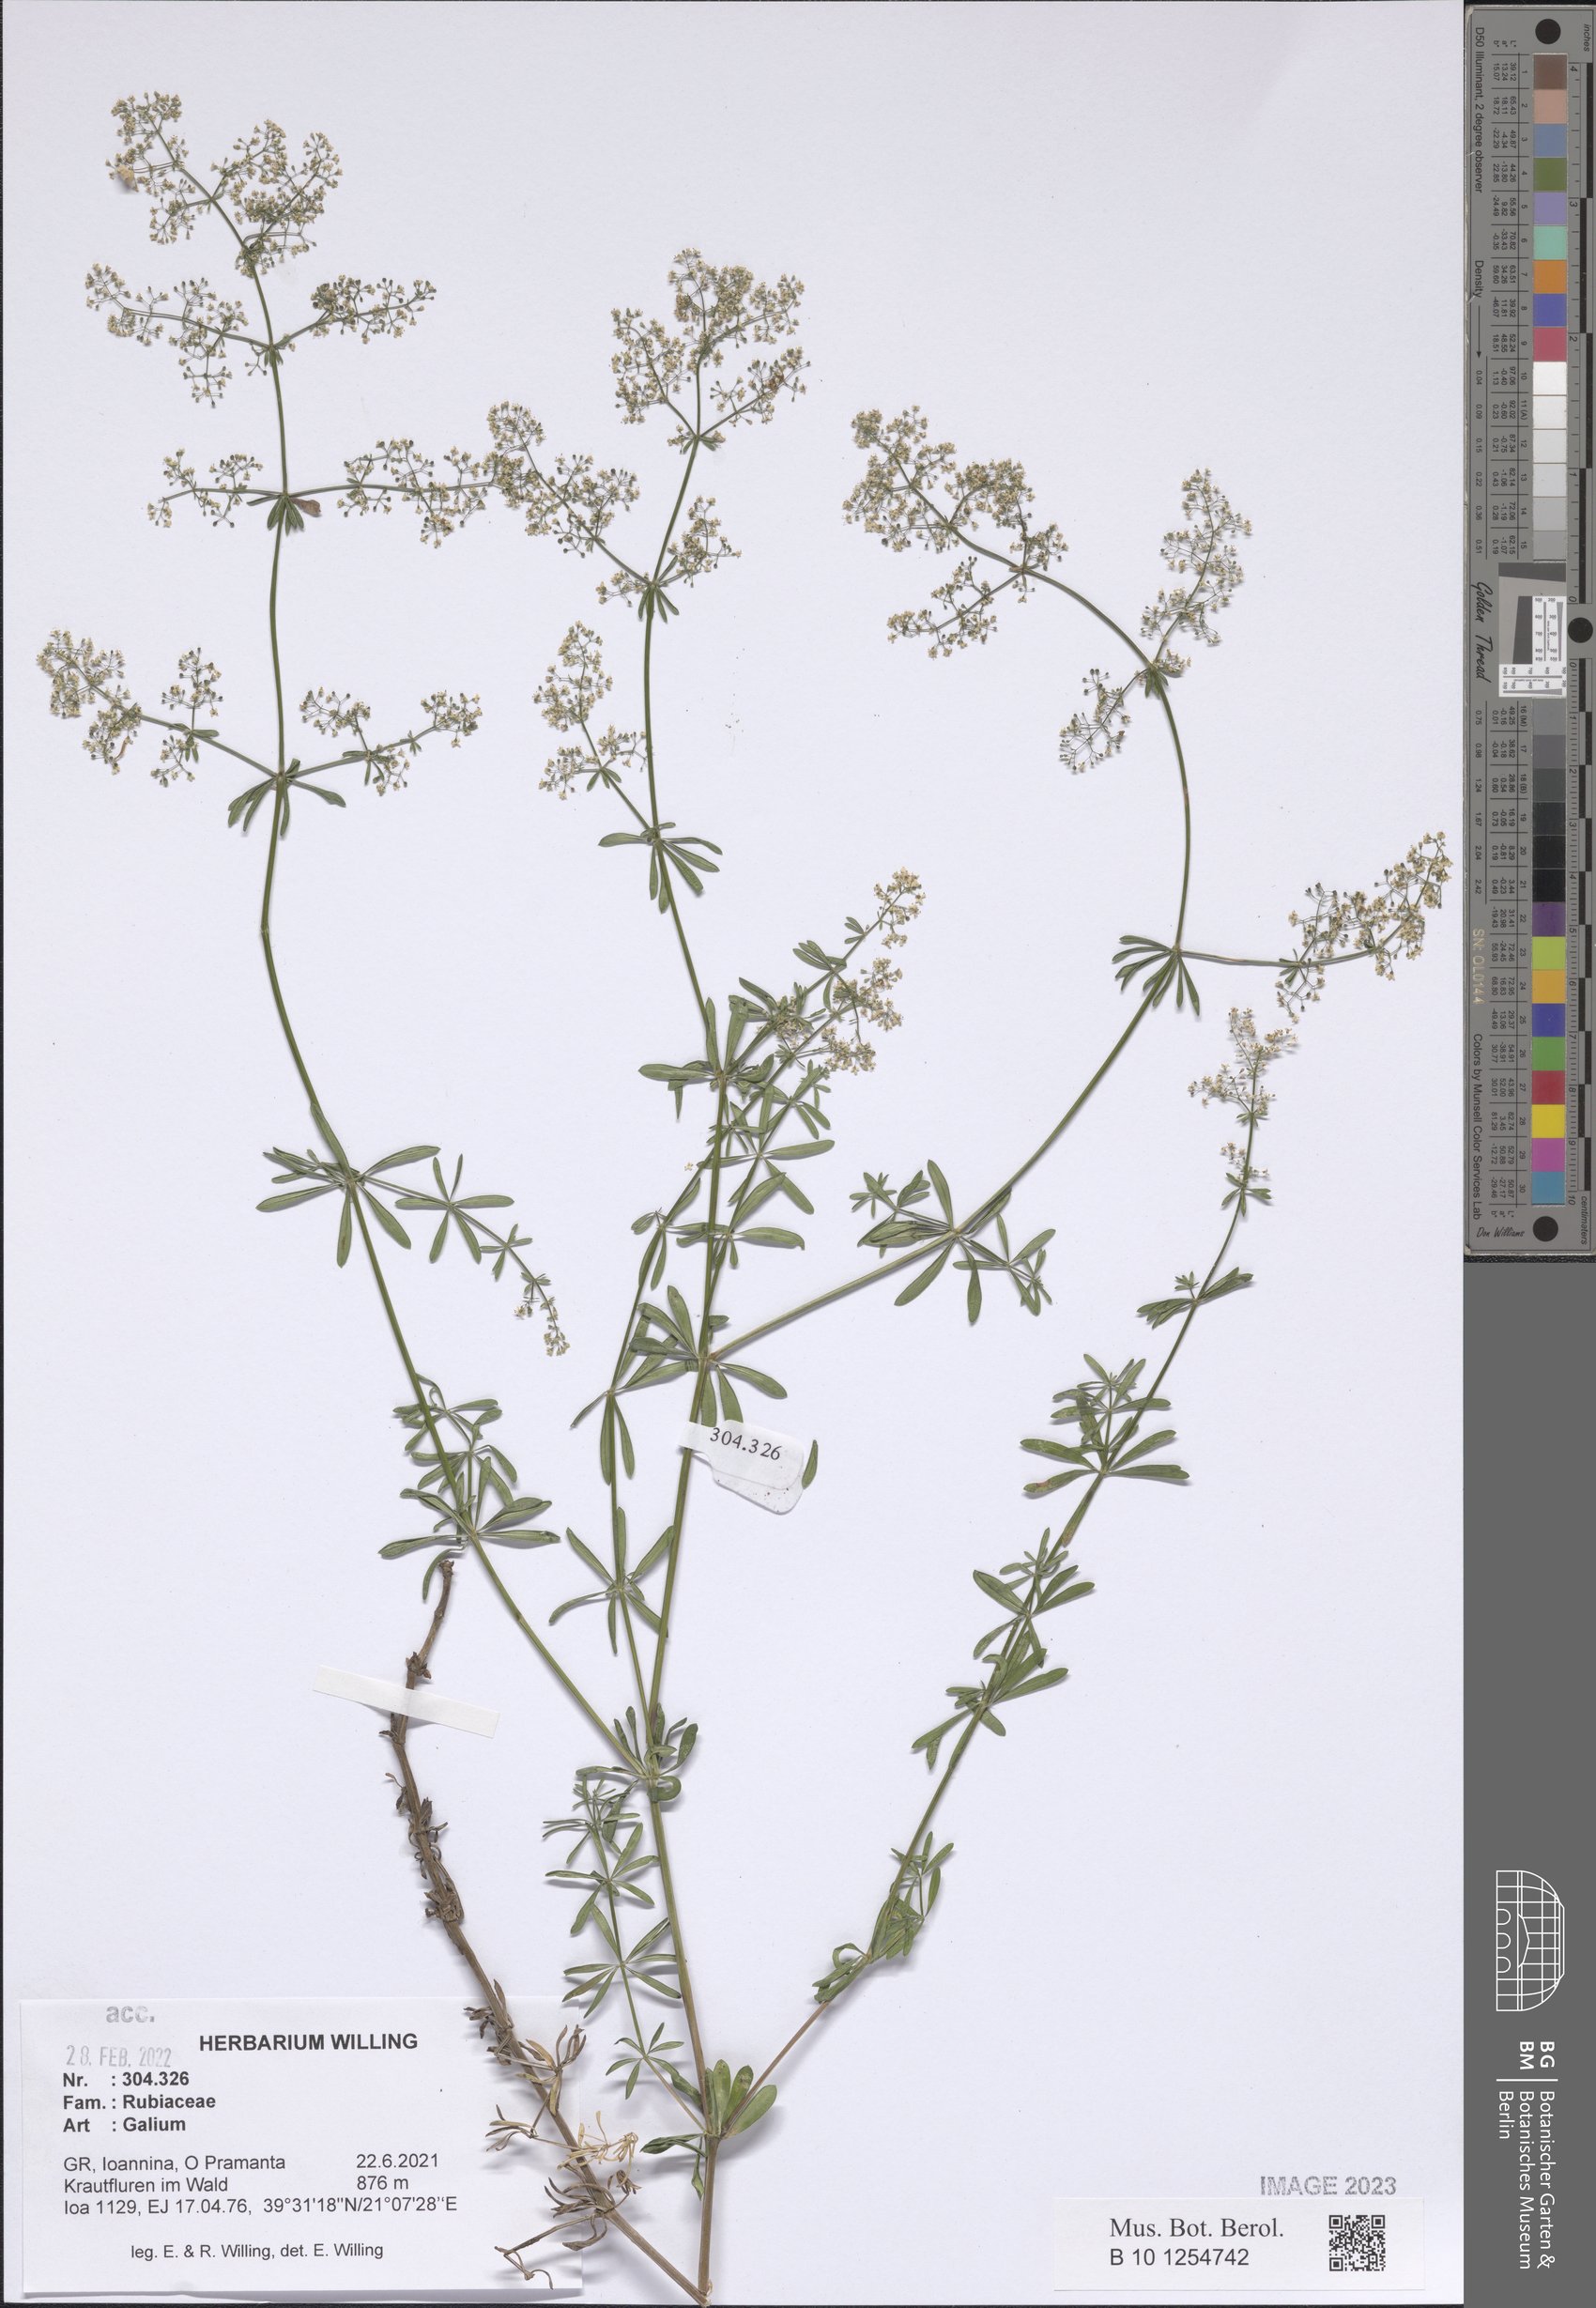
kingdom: Plantae
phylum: Tracheophyta
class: Magnoliopsida
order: Gentianales
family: Rubiaceae
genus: Galium
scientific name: Galium
